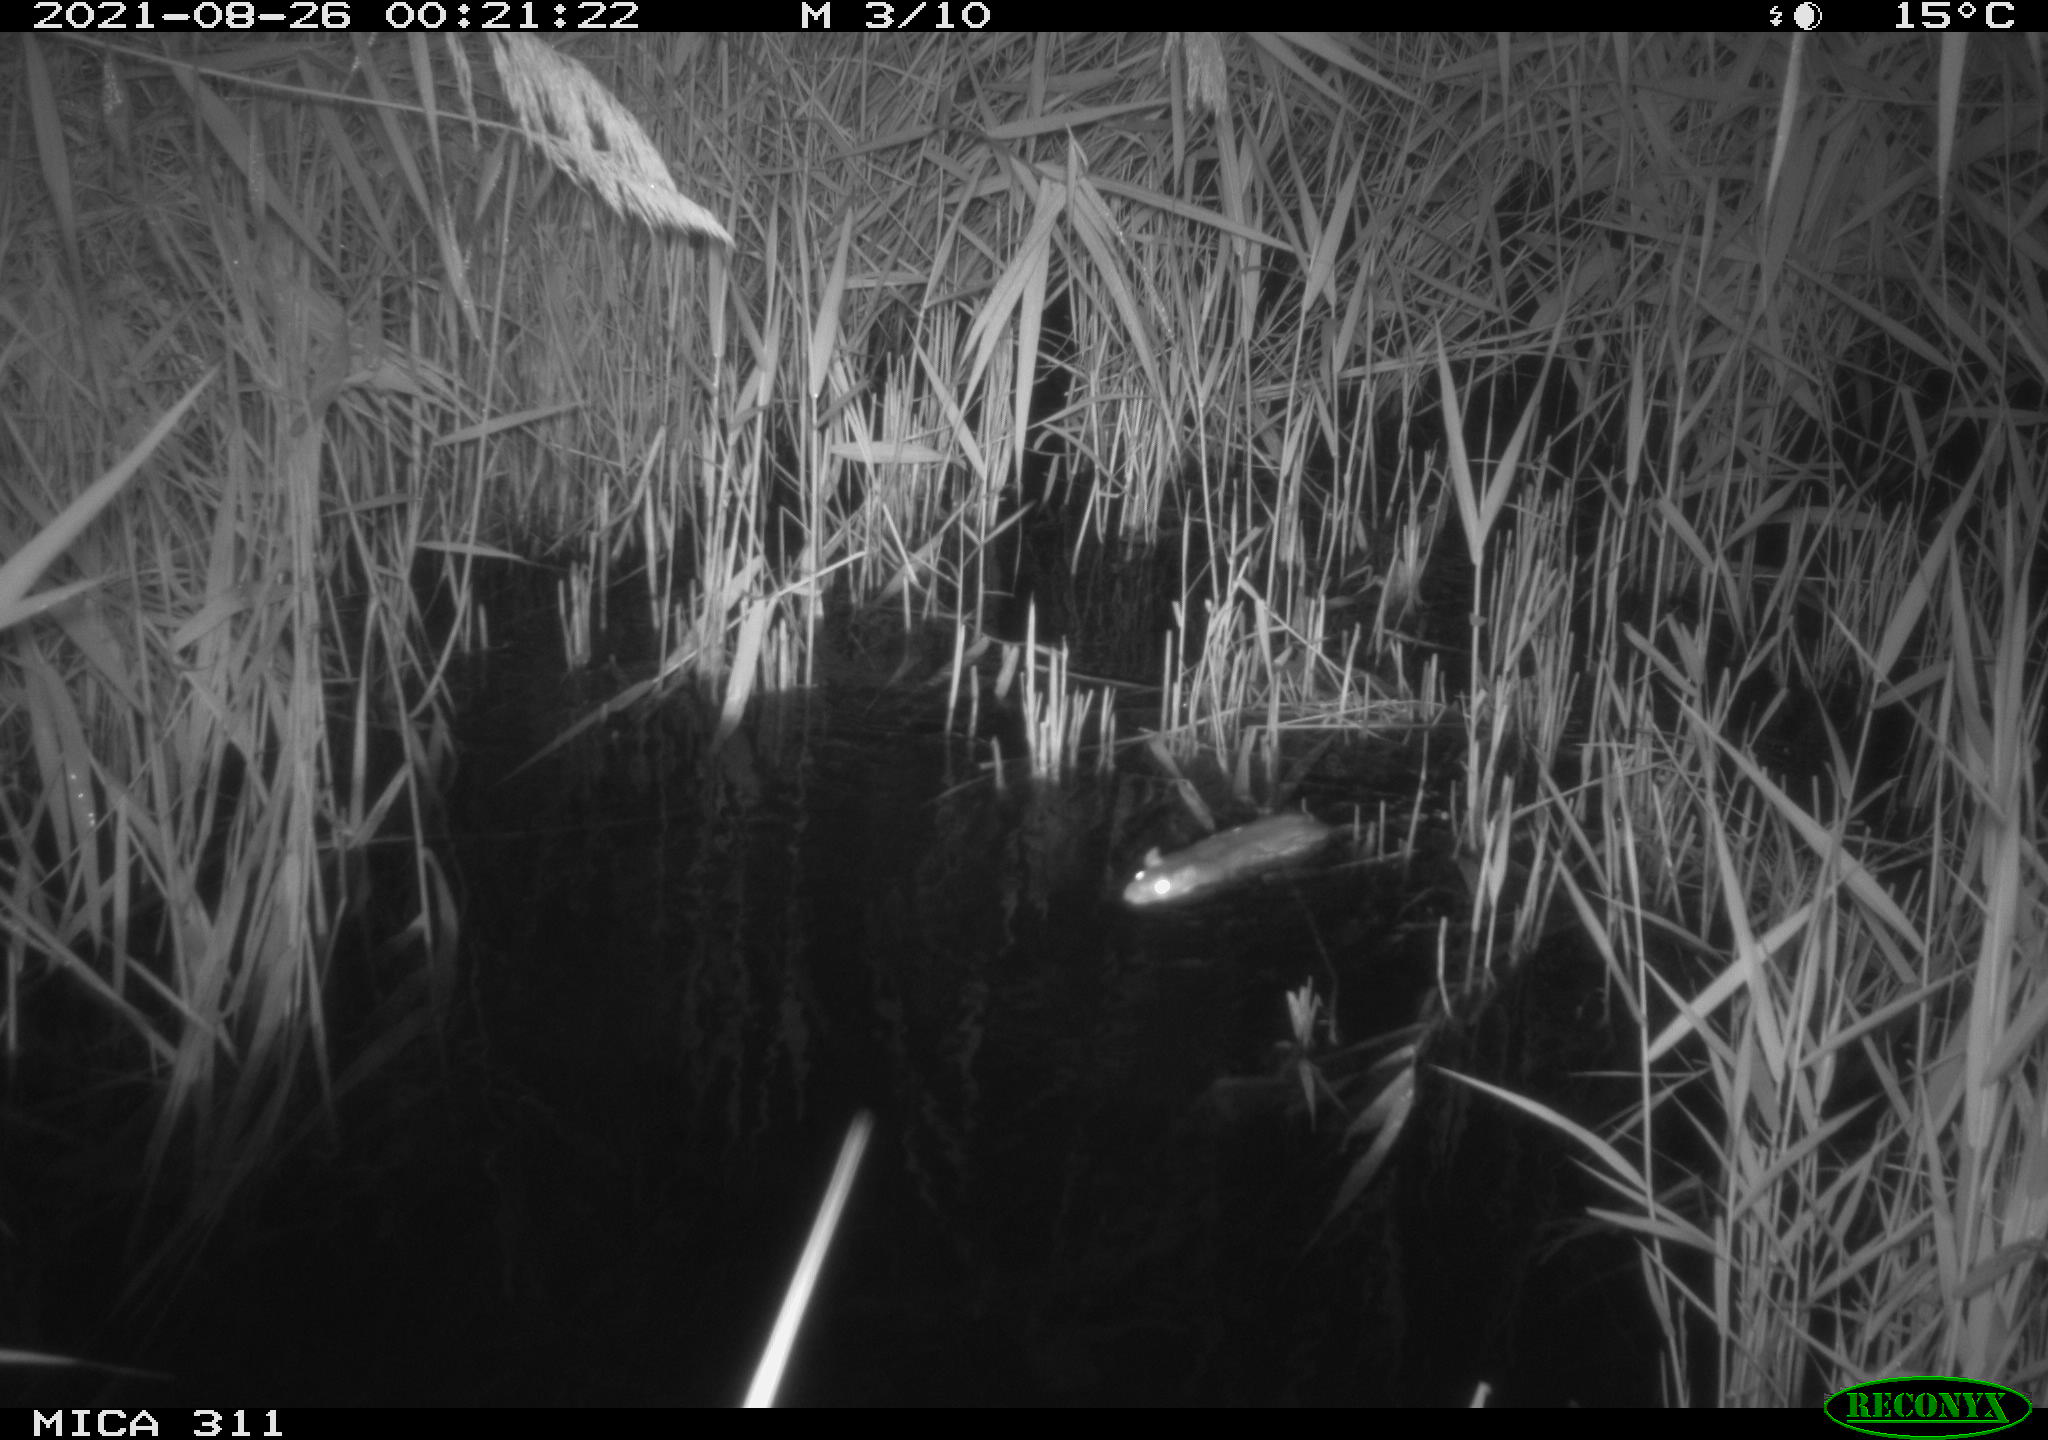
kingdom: Animalia
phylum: Chordata
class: Mammalia
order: Rodentia
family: Muridae
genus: Rattus
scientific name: Rattus norvegicus
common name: Brown rat
